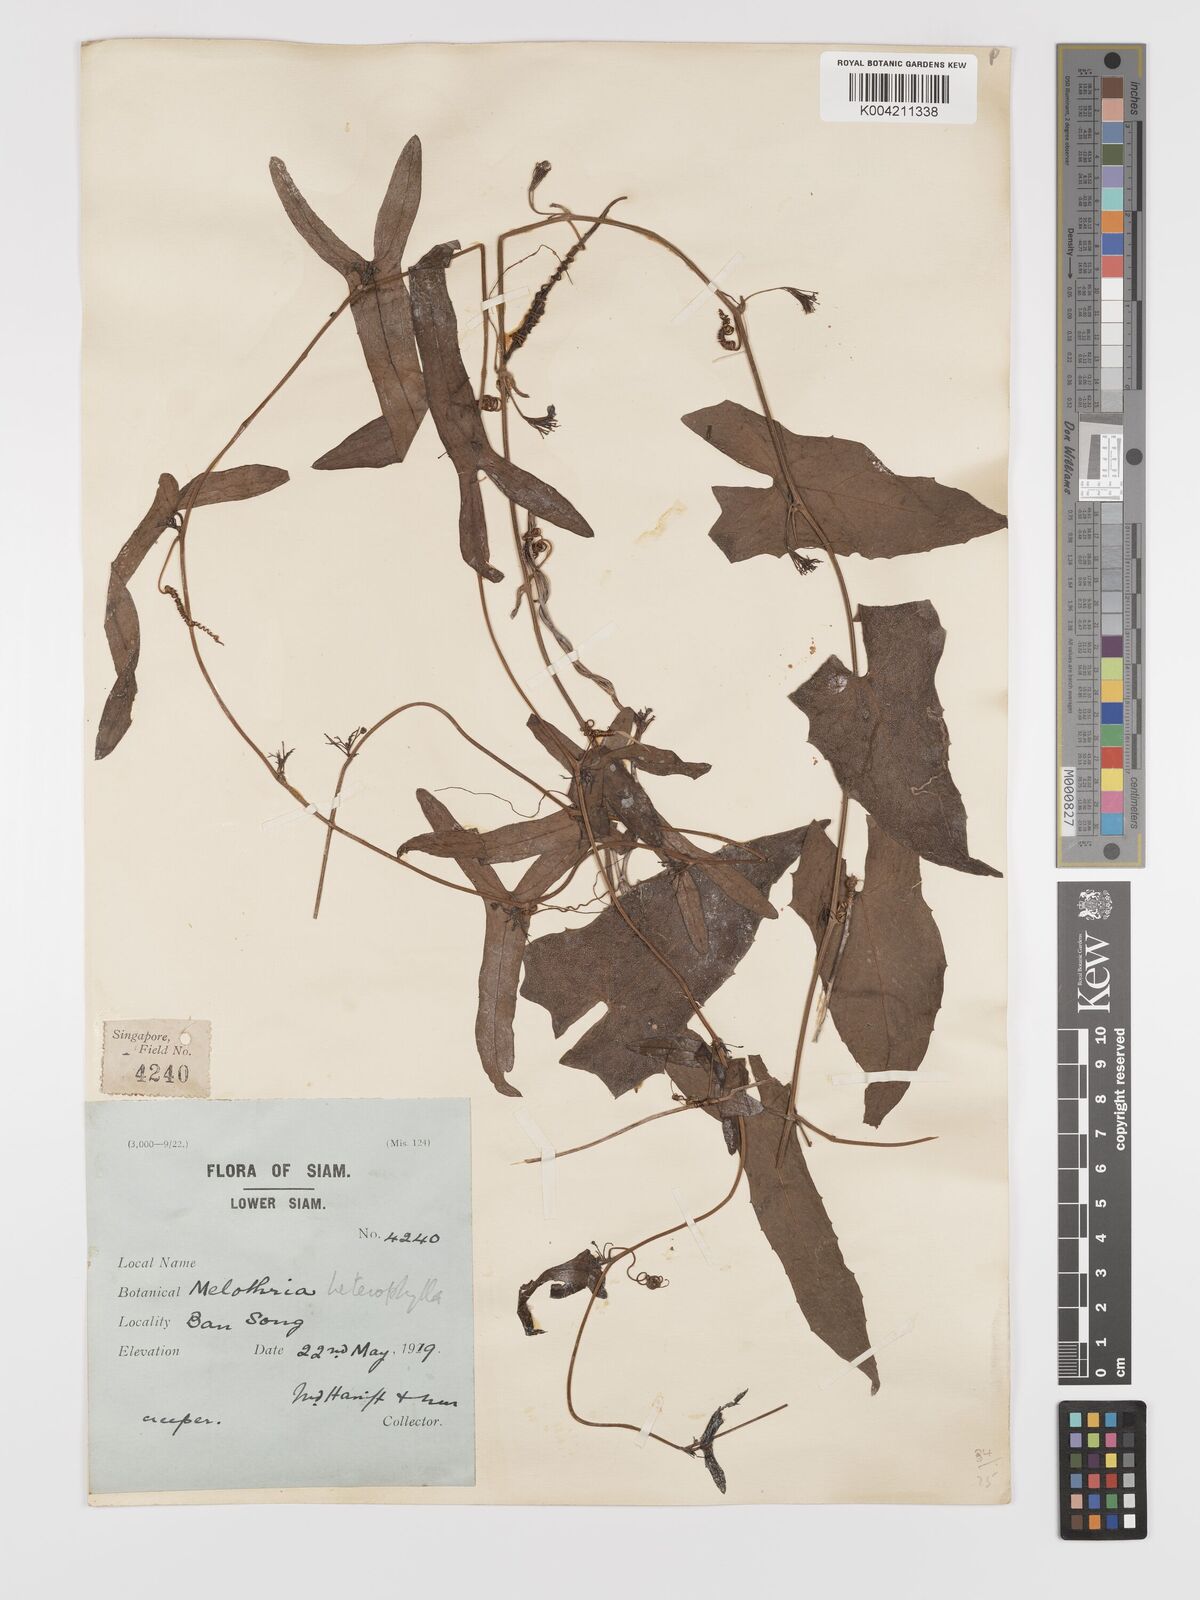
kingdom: Plantae
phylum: Tracheophyta
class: Magnoliopsida
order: Cucurbitales
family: Cucurbitaceae
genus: Solena
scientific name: Solena amplexicaulis
